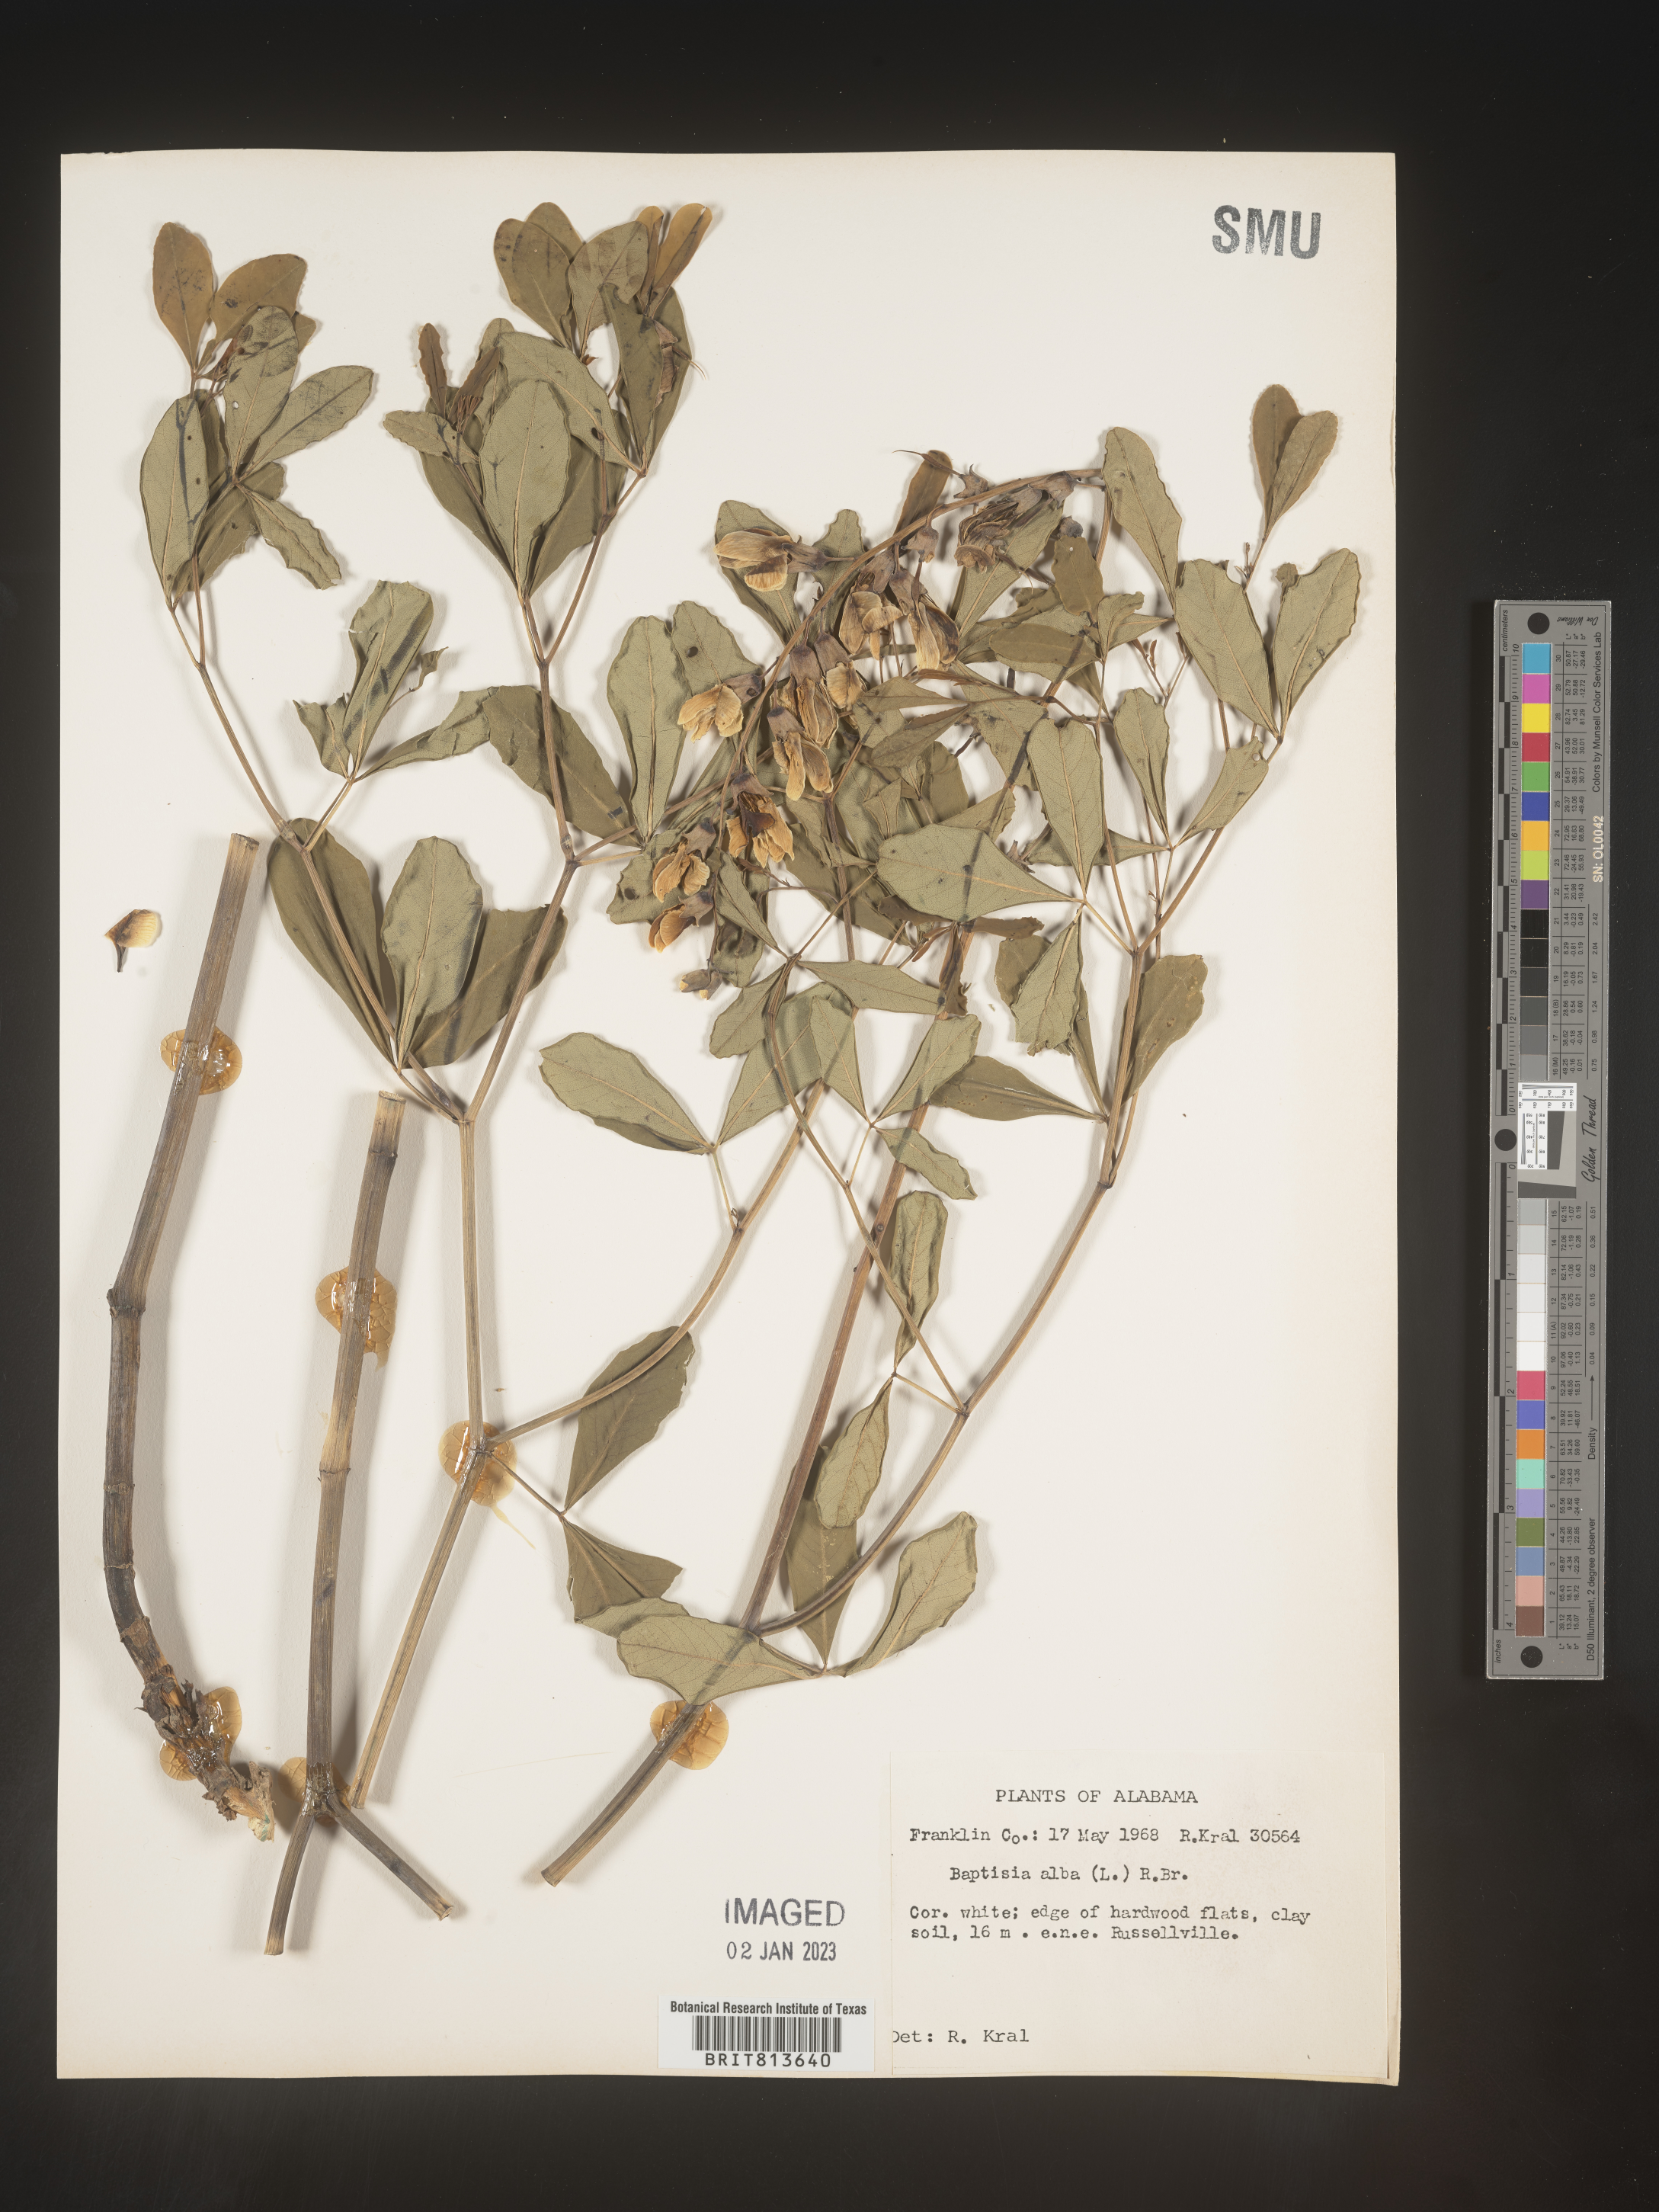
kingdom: Plantae
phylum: Tracheophyta
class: Magnoliopsida
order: Fabales
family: Fabaceae
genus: Baptisia
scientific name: Baptisia alba
